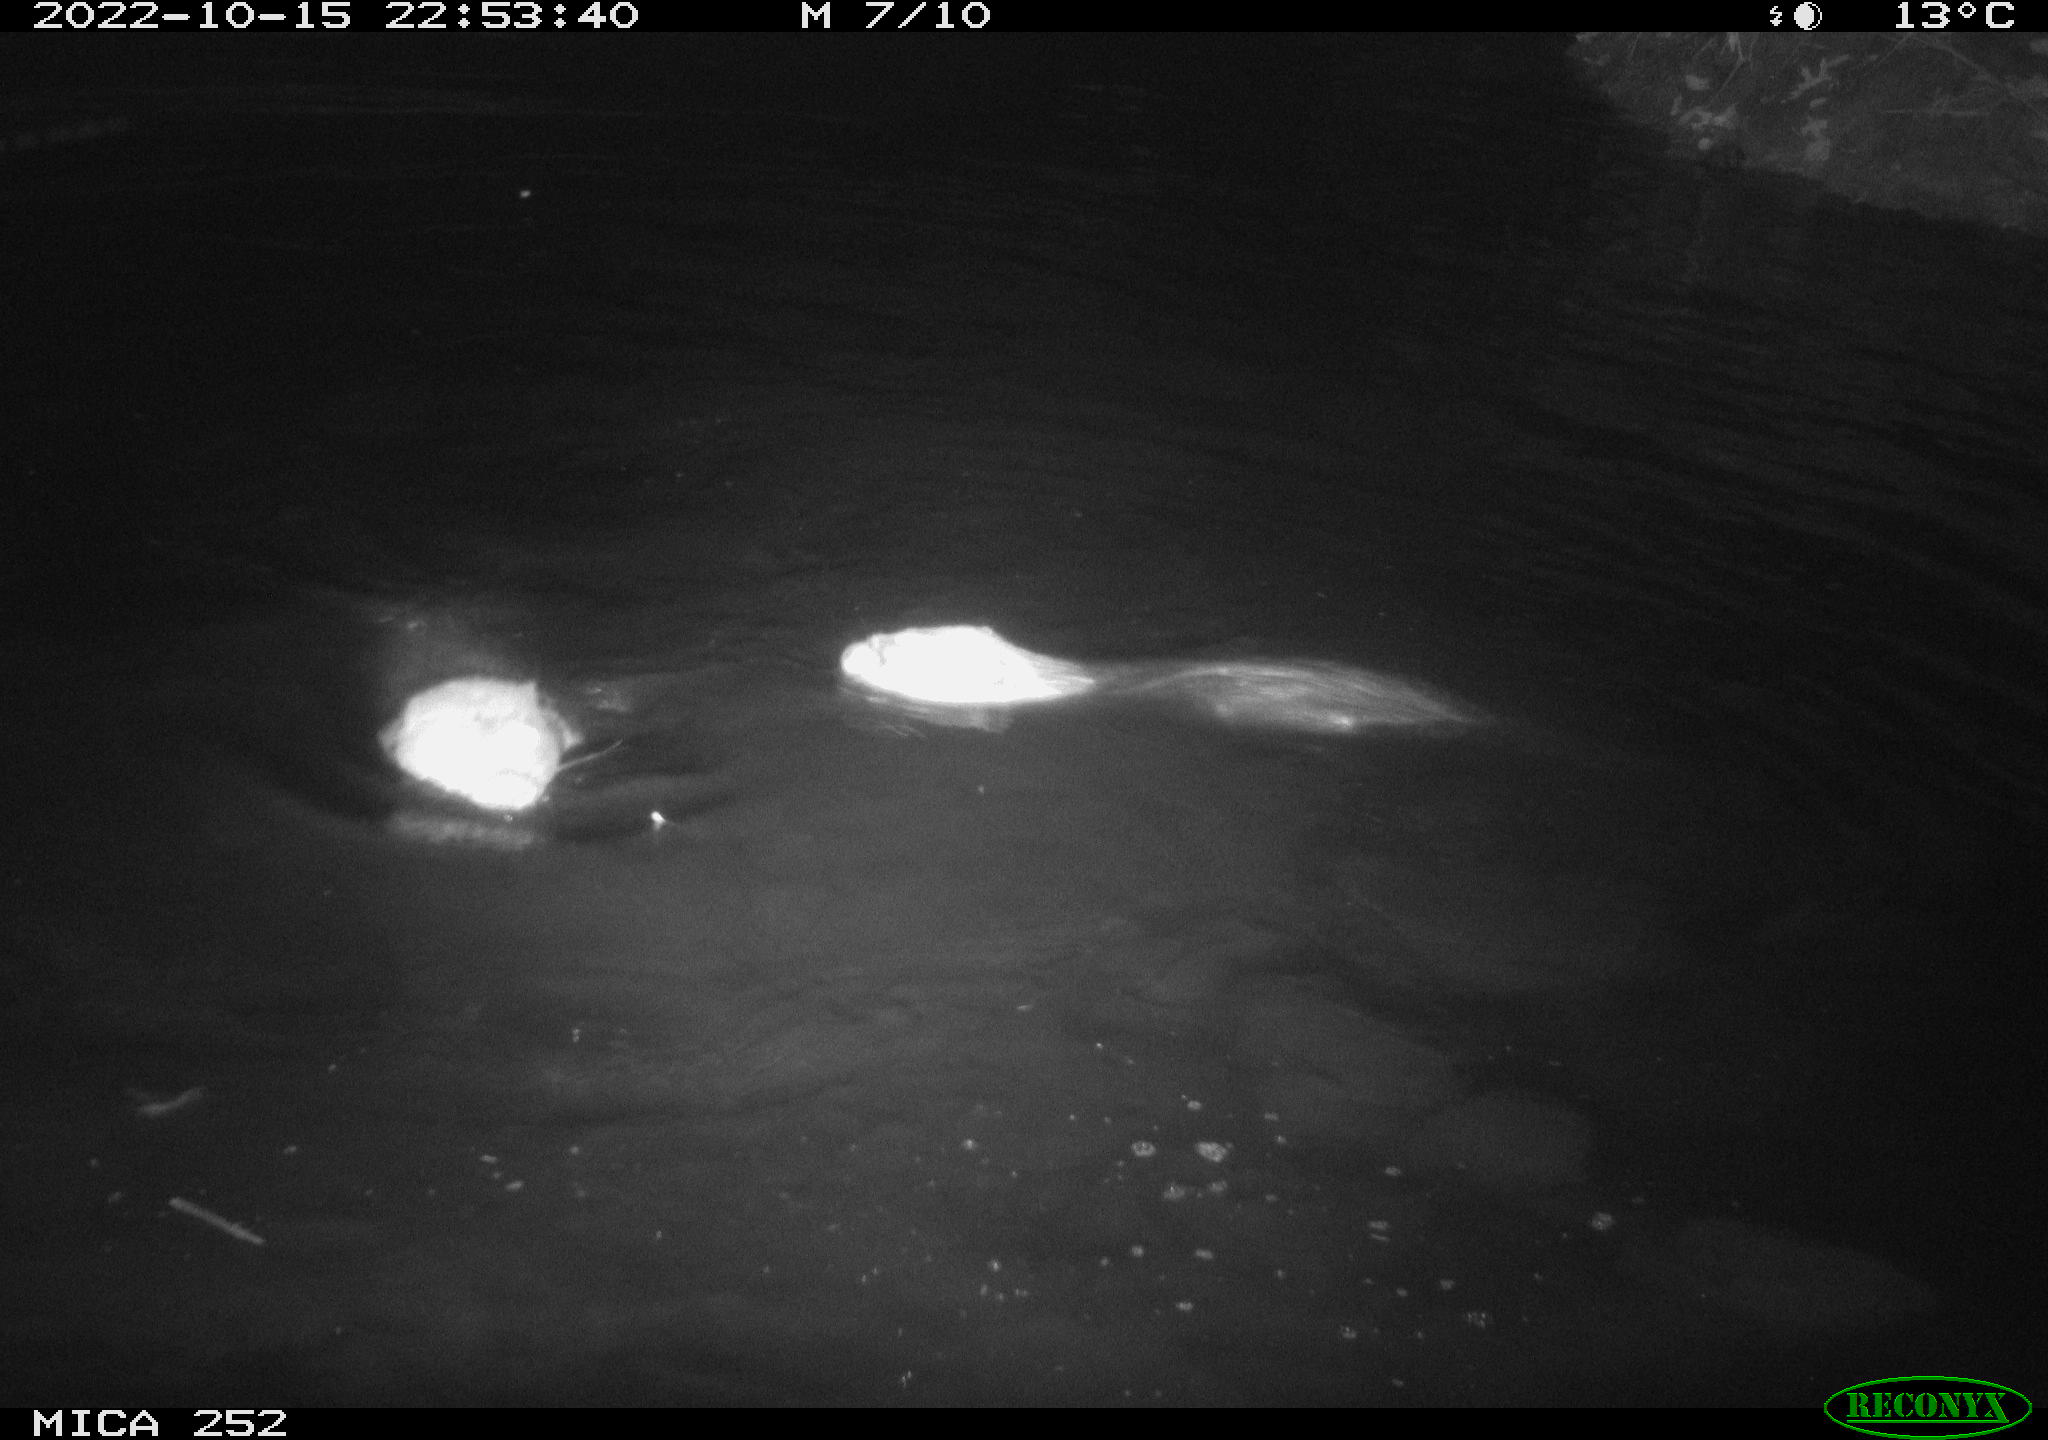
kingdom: Animalia
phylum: Chordata
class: Mammalia
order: Rodentia
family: Castoridae
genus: Castor
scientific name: Castor fiber
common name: Eurasian beaver
